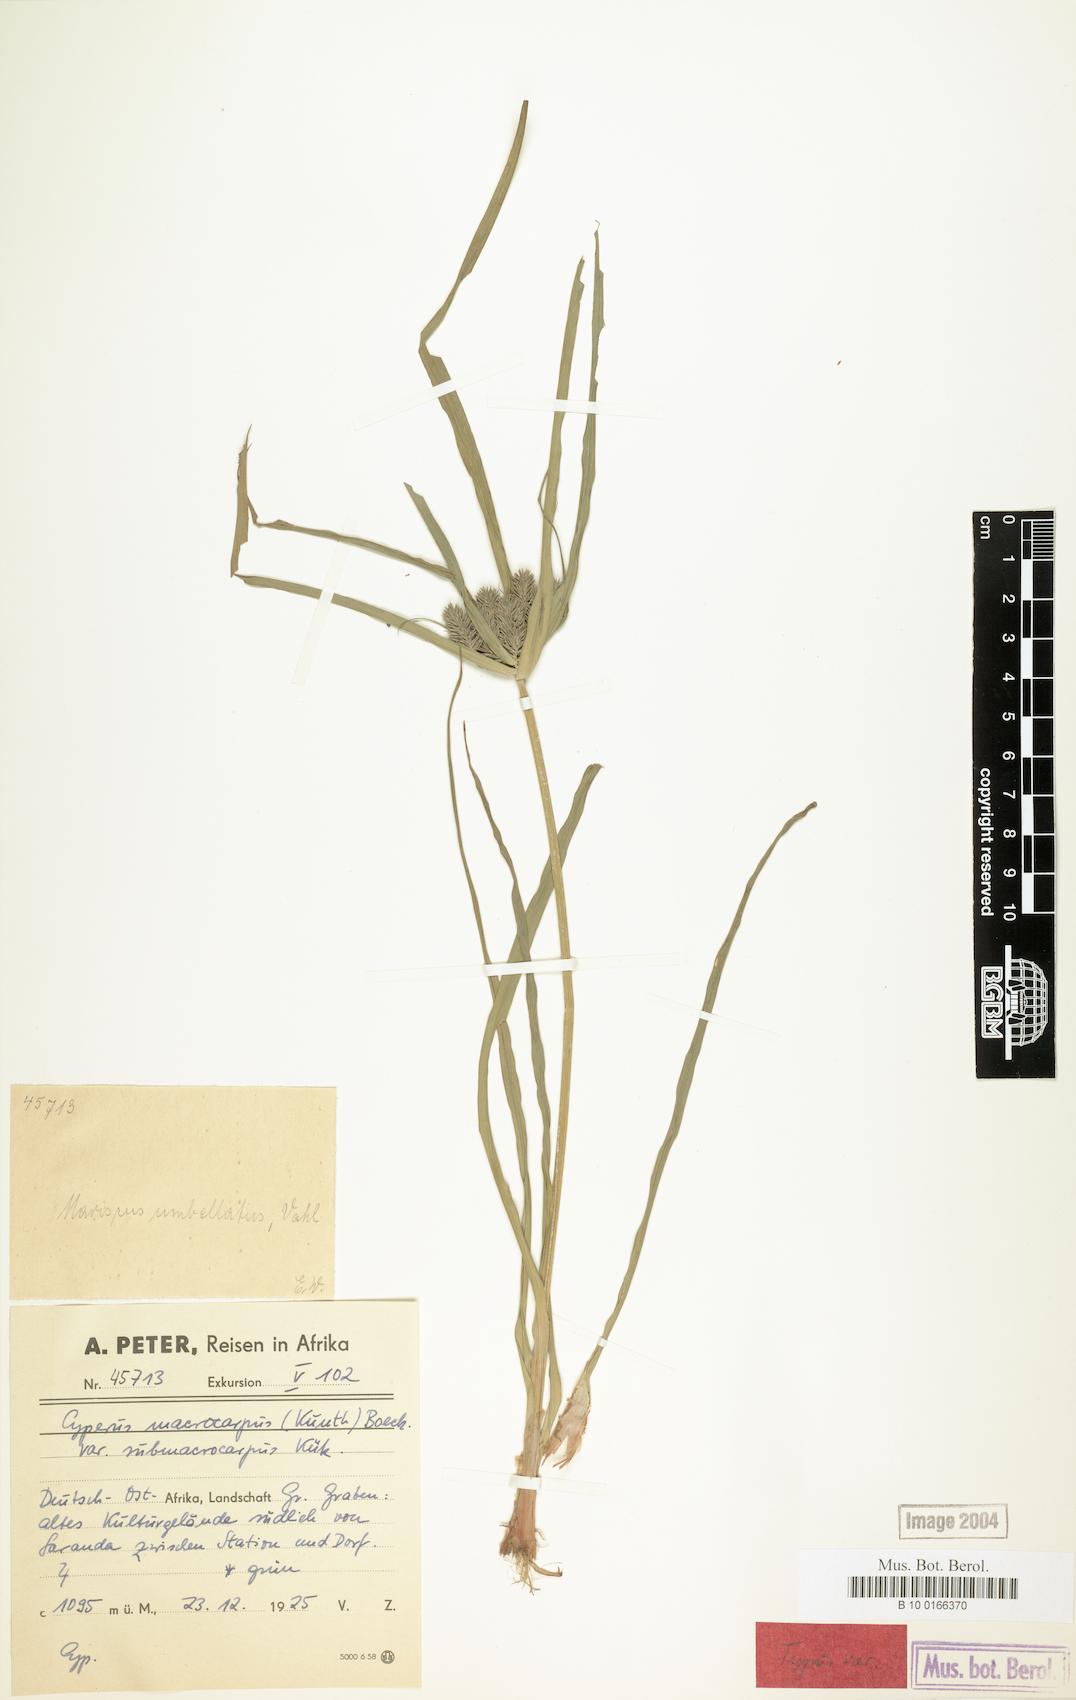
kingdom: Plantae
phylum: Tracheophyta
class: Liliopsida
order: Poales
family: Cyperaceae
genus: Cyperus
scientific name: Cyperus cyperoides
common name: Pacific island flat sedge
